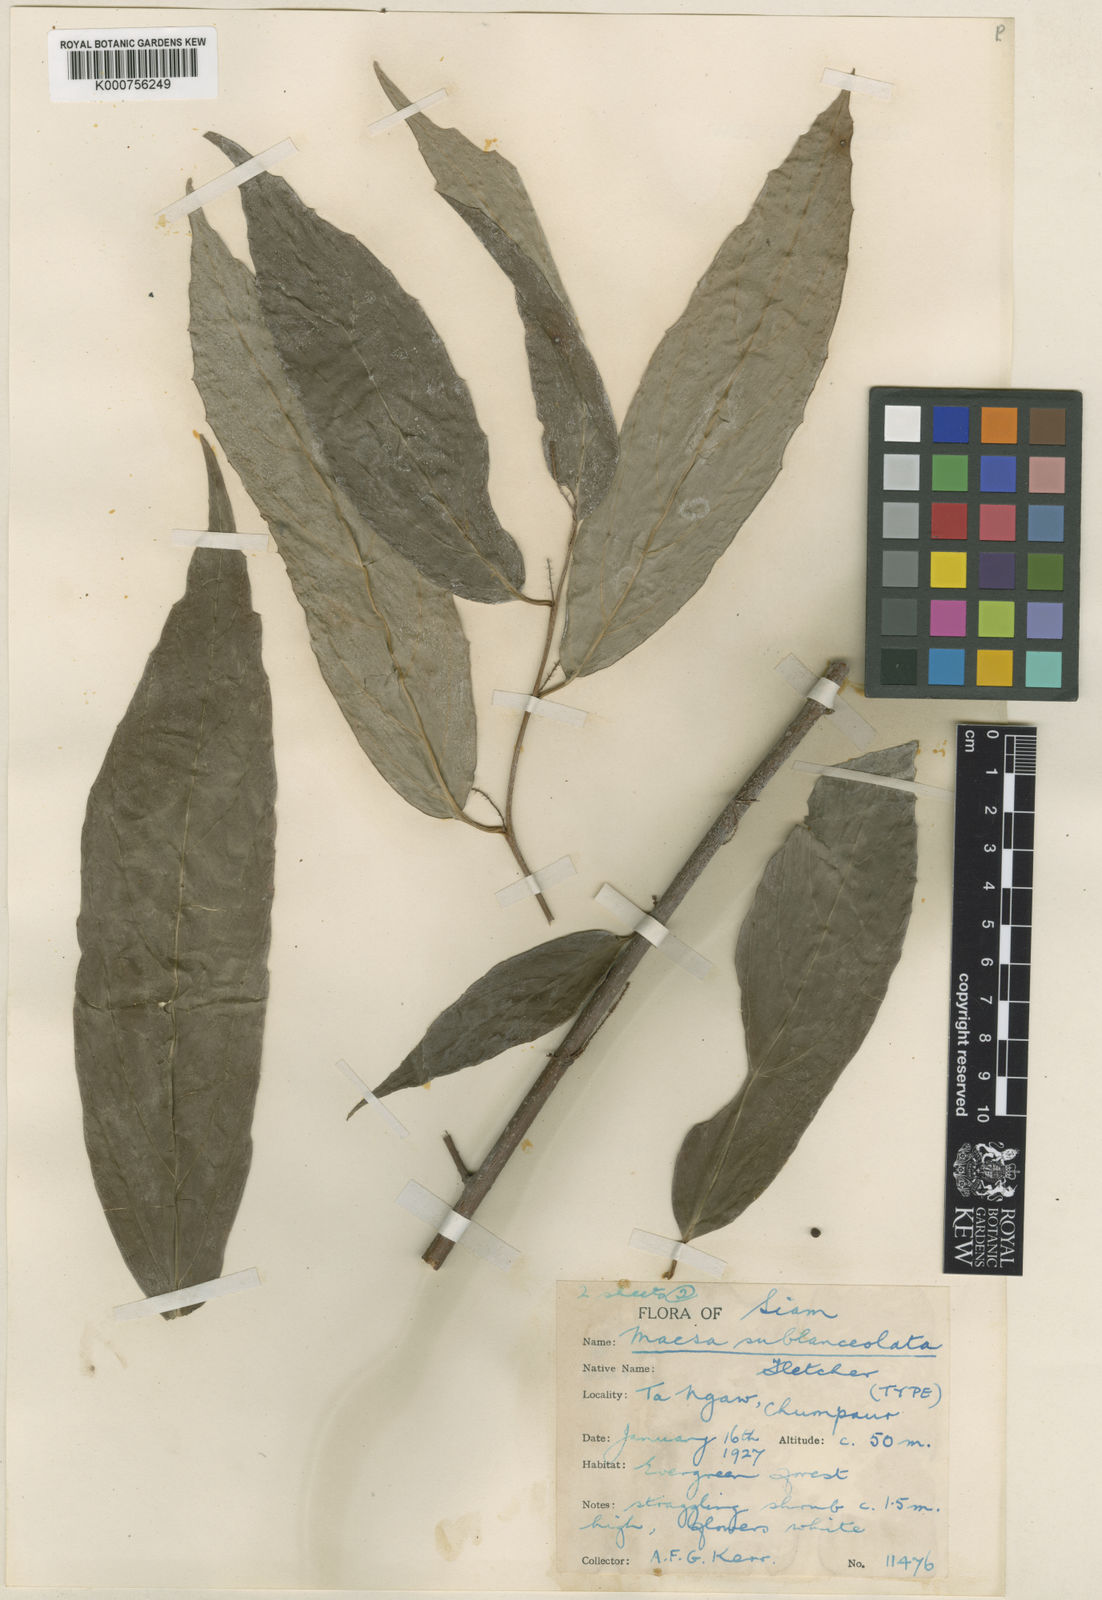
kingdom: Plantae
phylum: Tracheophyta
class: Magnoliopsida
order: Ericales
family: Primulaceae
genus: Maesa
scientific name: Maesa integrifolia
